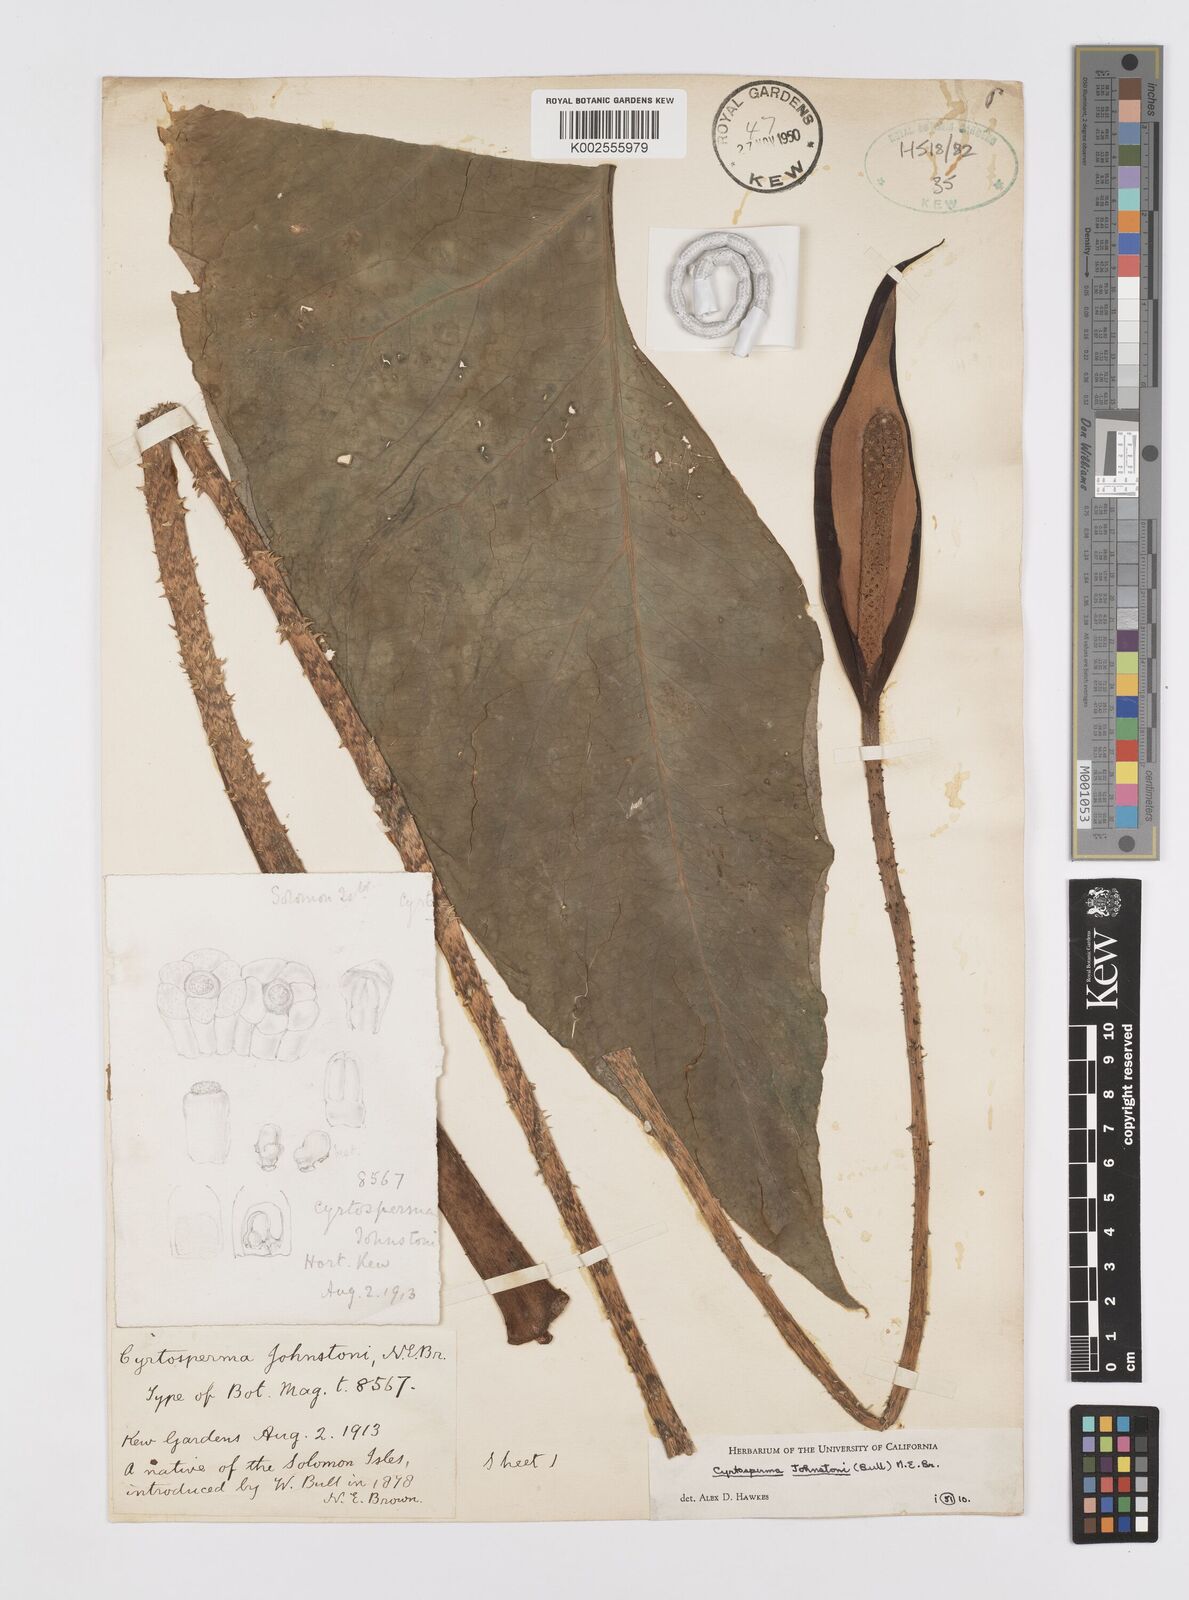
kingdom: Plantae
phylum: Tracheophyta
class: Liliopsida
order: Alismatales
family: Araceae
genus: Cyrtosperma
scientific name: Cyrtosperma johnstonii
